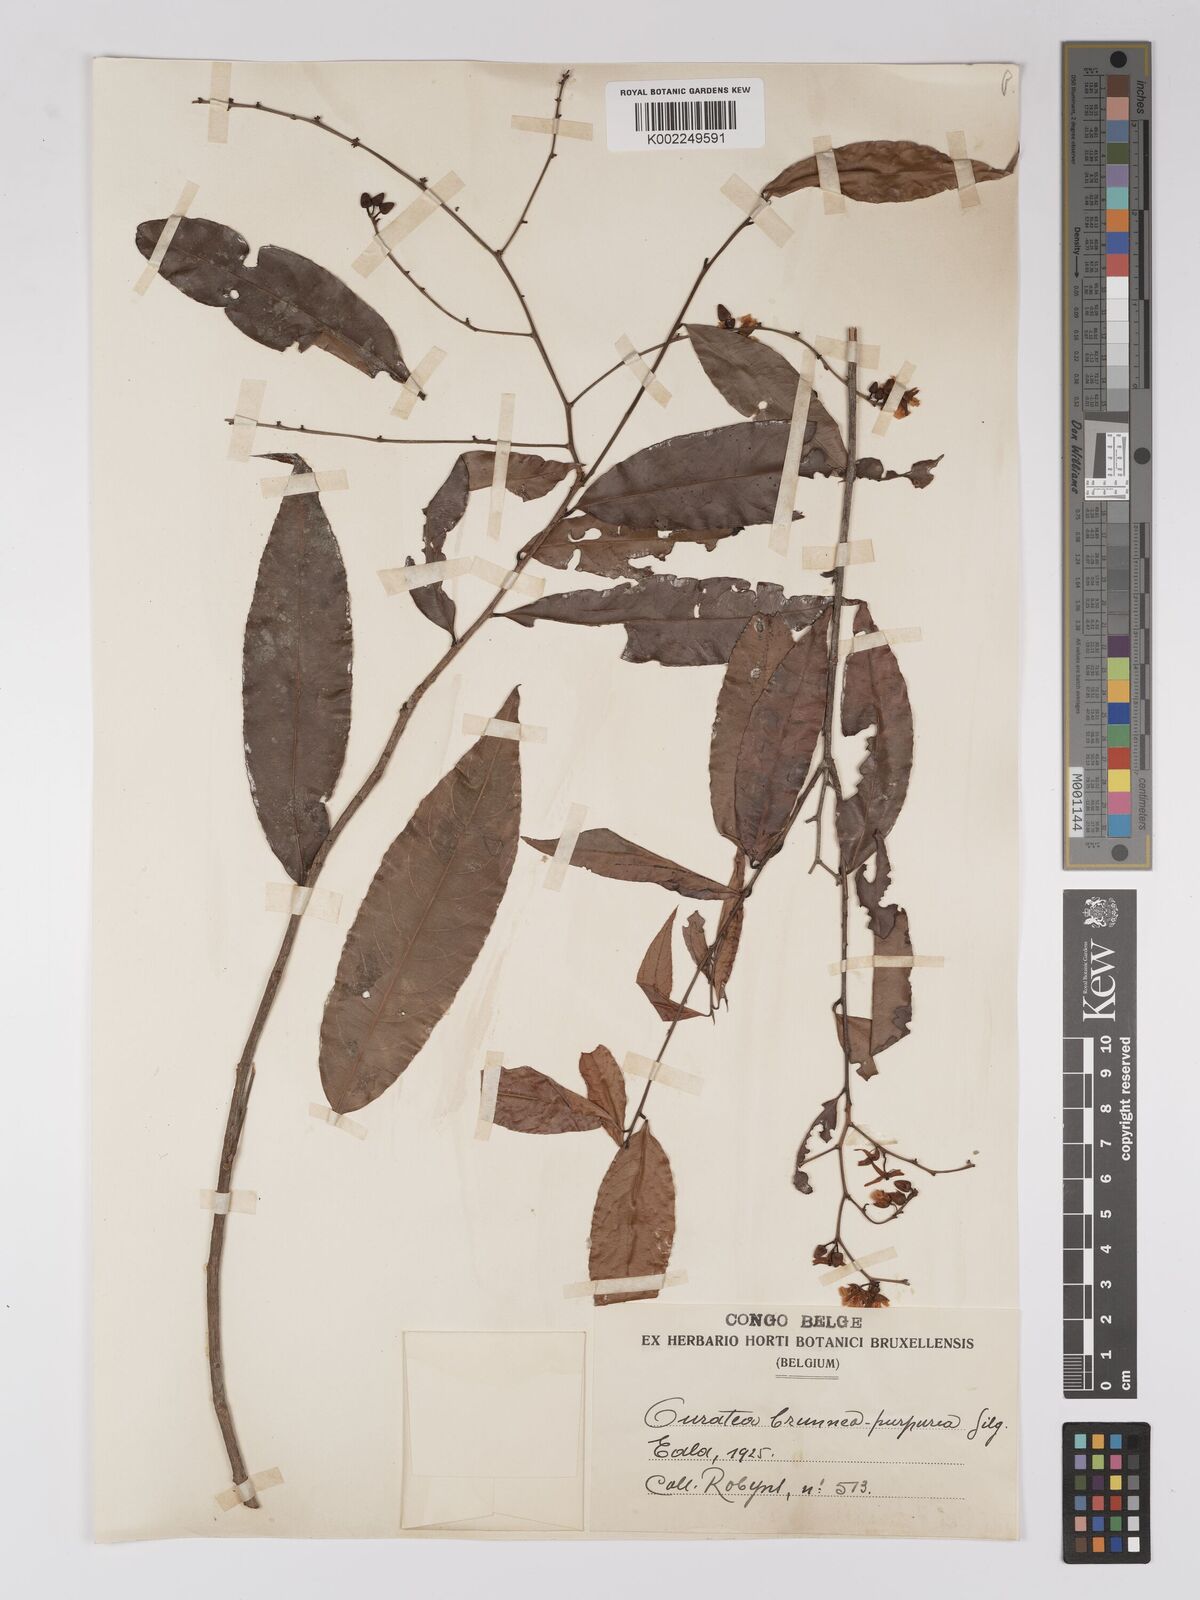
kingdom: Plantae
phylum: Tracheophyta
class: Magnoliopsida
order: Malpighiales
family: Ochnaceae
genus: Campylospermum
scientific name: Campylospermum reticulatum
